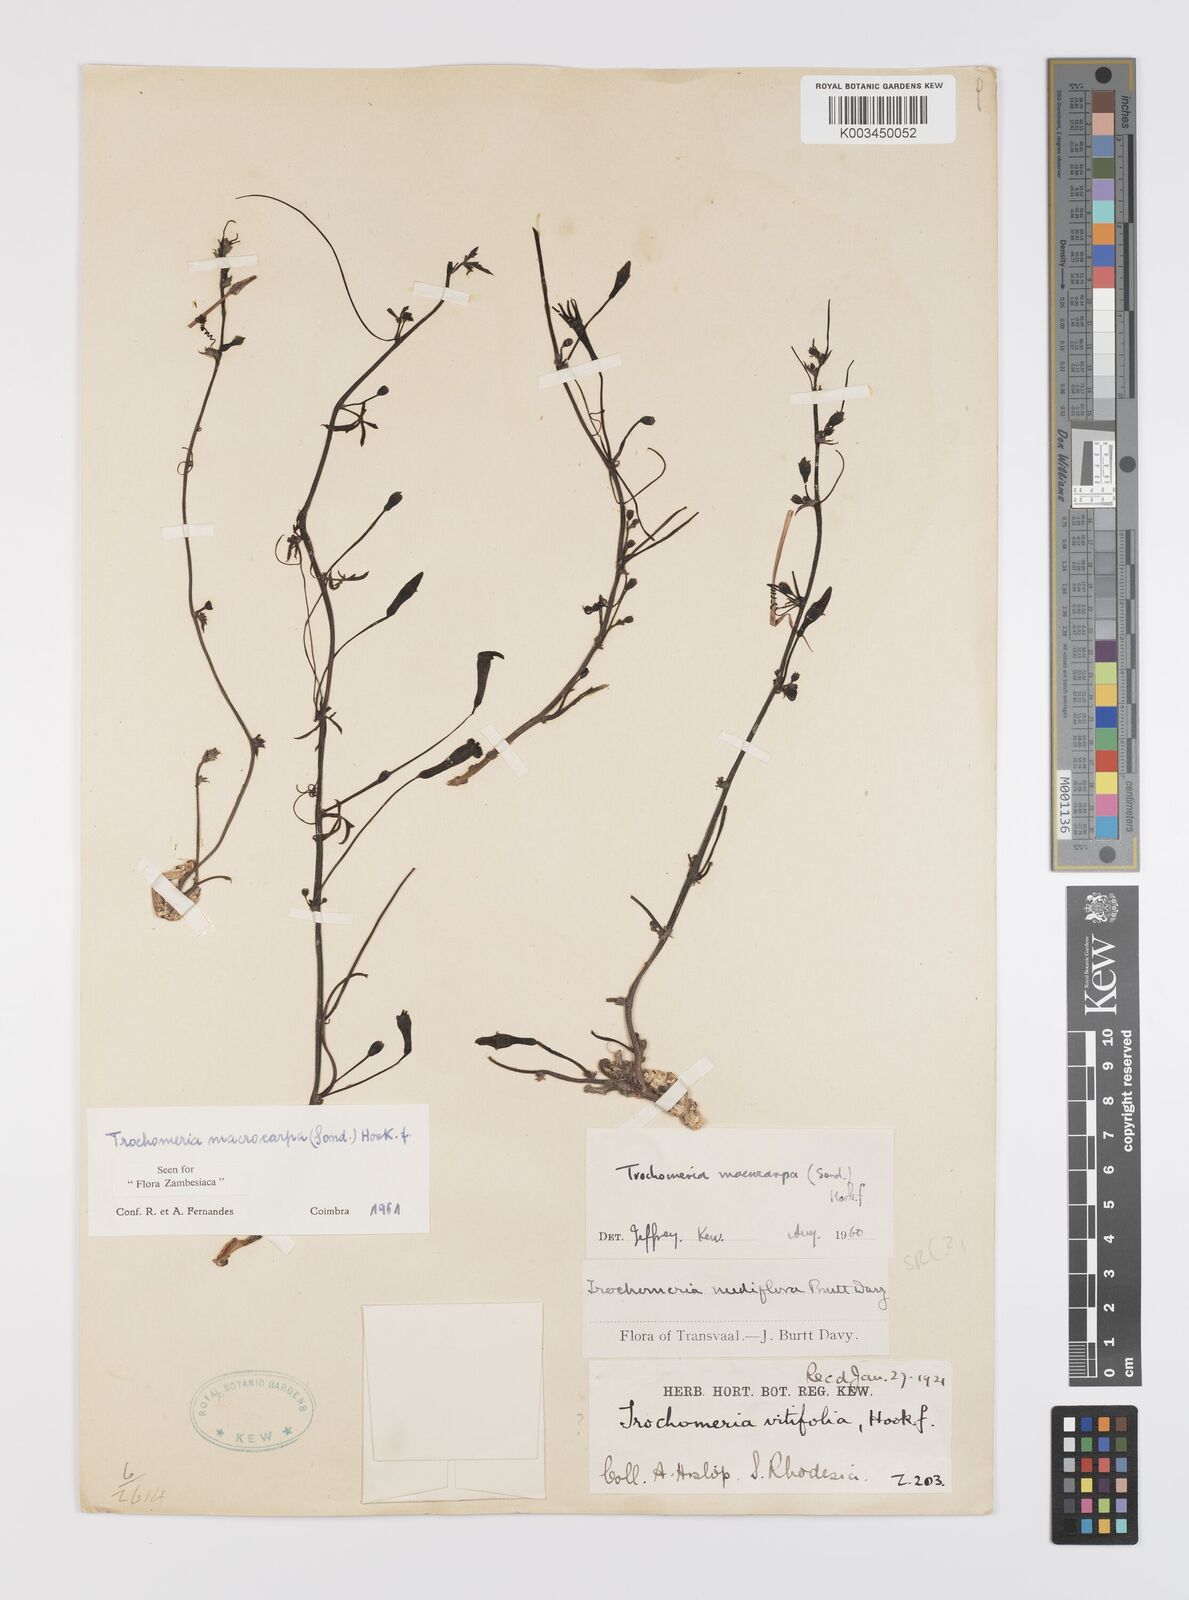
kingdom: Plantae
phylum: Tracheophyta
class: Magnoliopsida
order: Cucurbitales
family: Cucurbitaceae
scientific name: Cucurbitaceae
